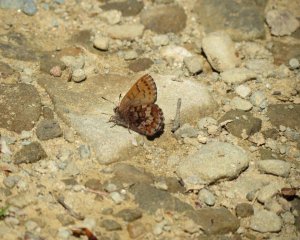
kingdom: Animalia
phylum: Arthropoda
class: Insecta
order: Lepidoptera
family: Lycaenidae
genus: Incisalia
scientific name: Incisalia niphon
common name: Eastern Pine Elfin
